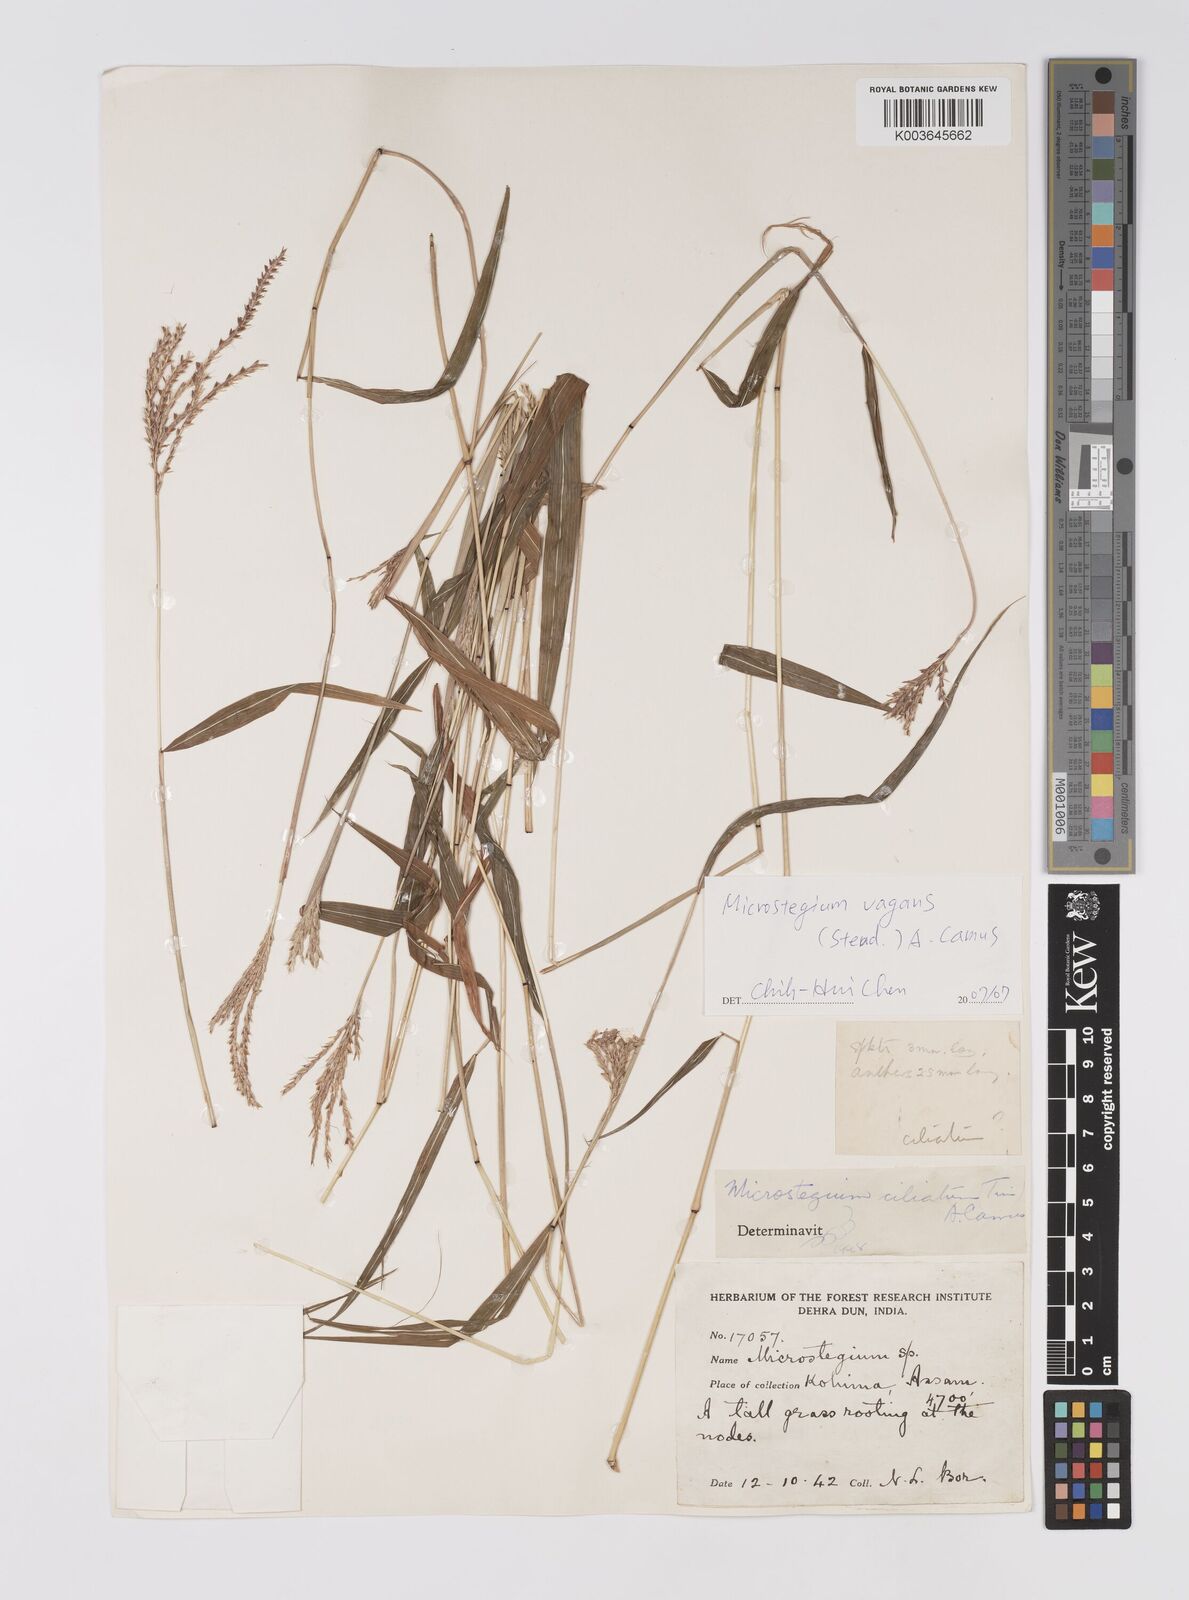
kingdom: Plantae
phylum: Tracheophyta
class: Liliopsida
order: Poales
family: Poaceae
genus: Microstegium
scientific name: Microstegium fasciculatum
